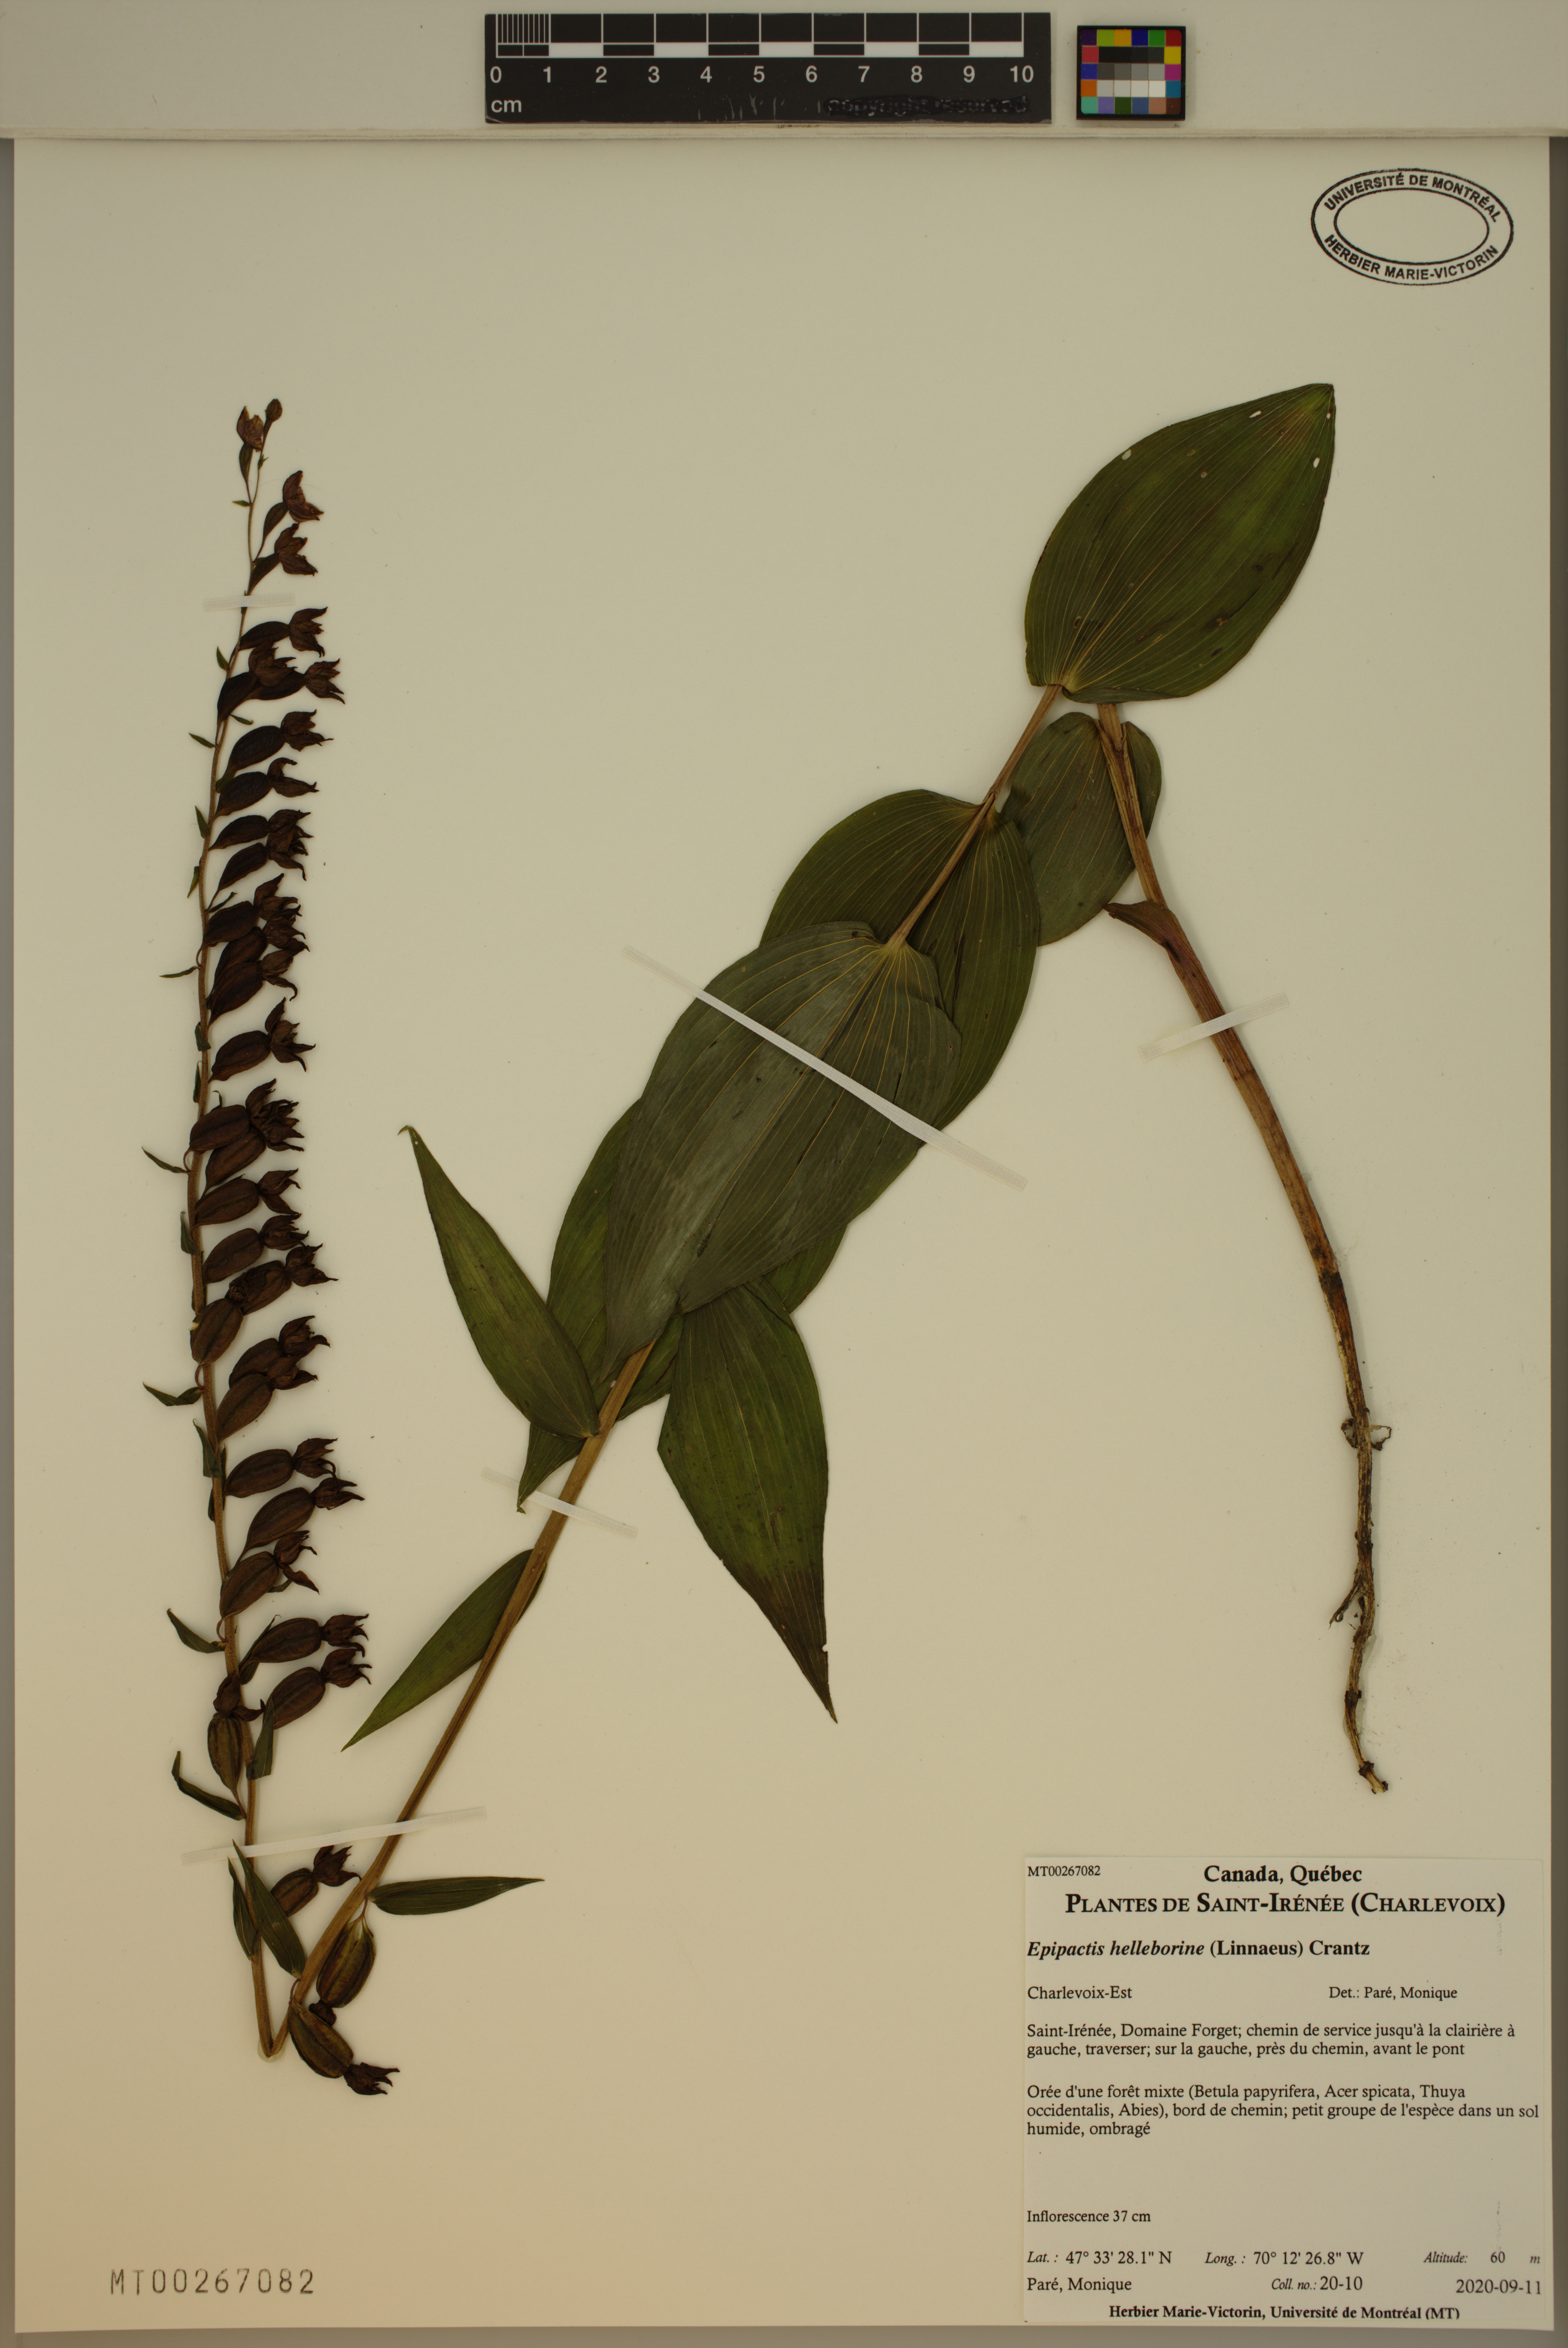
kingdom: Plantae
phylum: Tracheophyta
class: Liliopsida
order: Asparagales
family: Orchidaceae
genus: Epipactis
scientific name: Epipactis helleborine
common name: Broad-leaved helleborine
